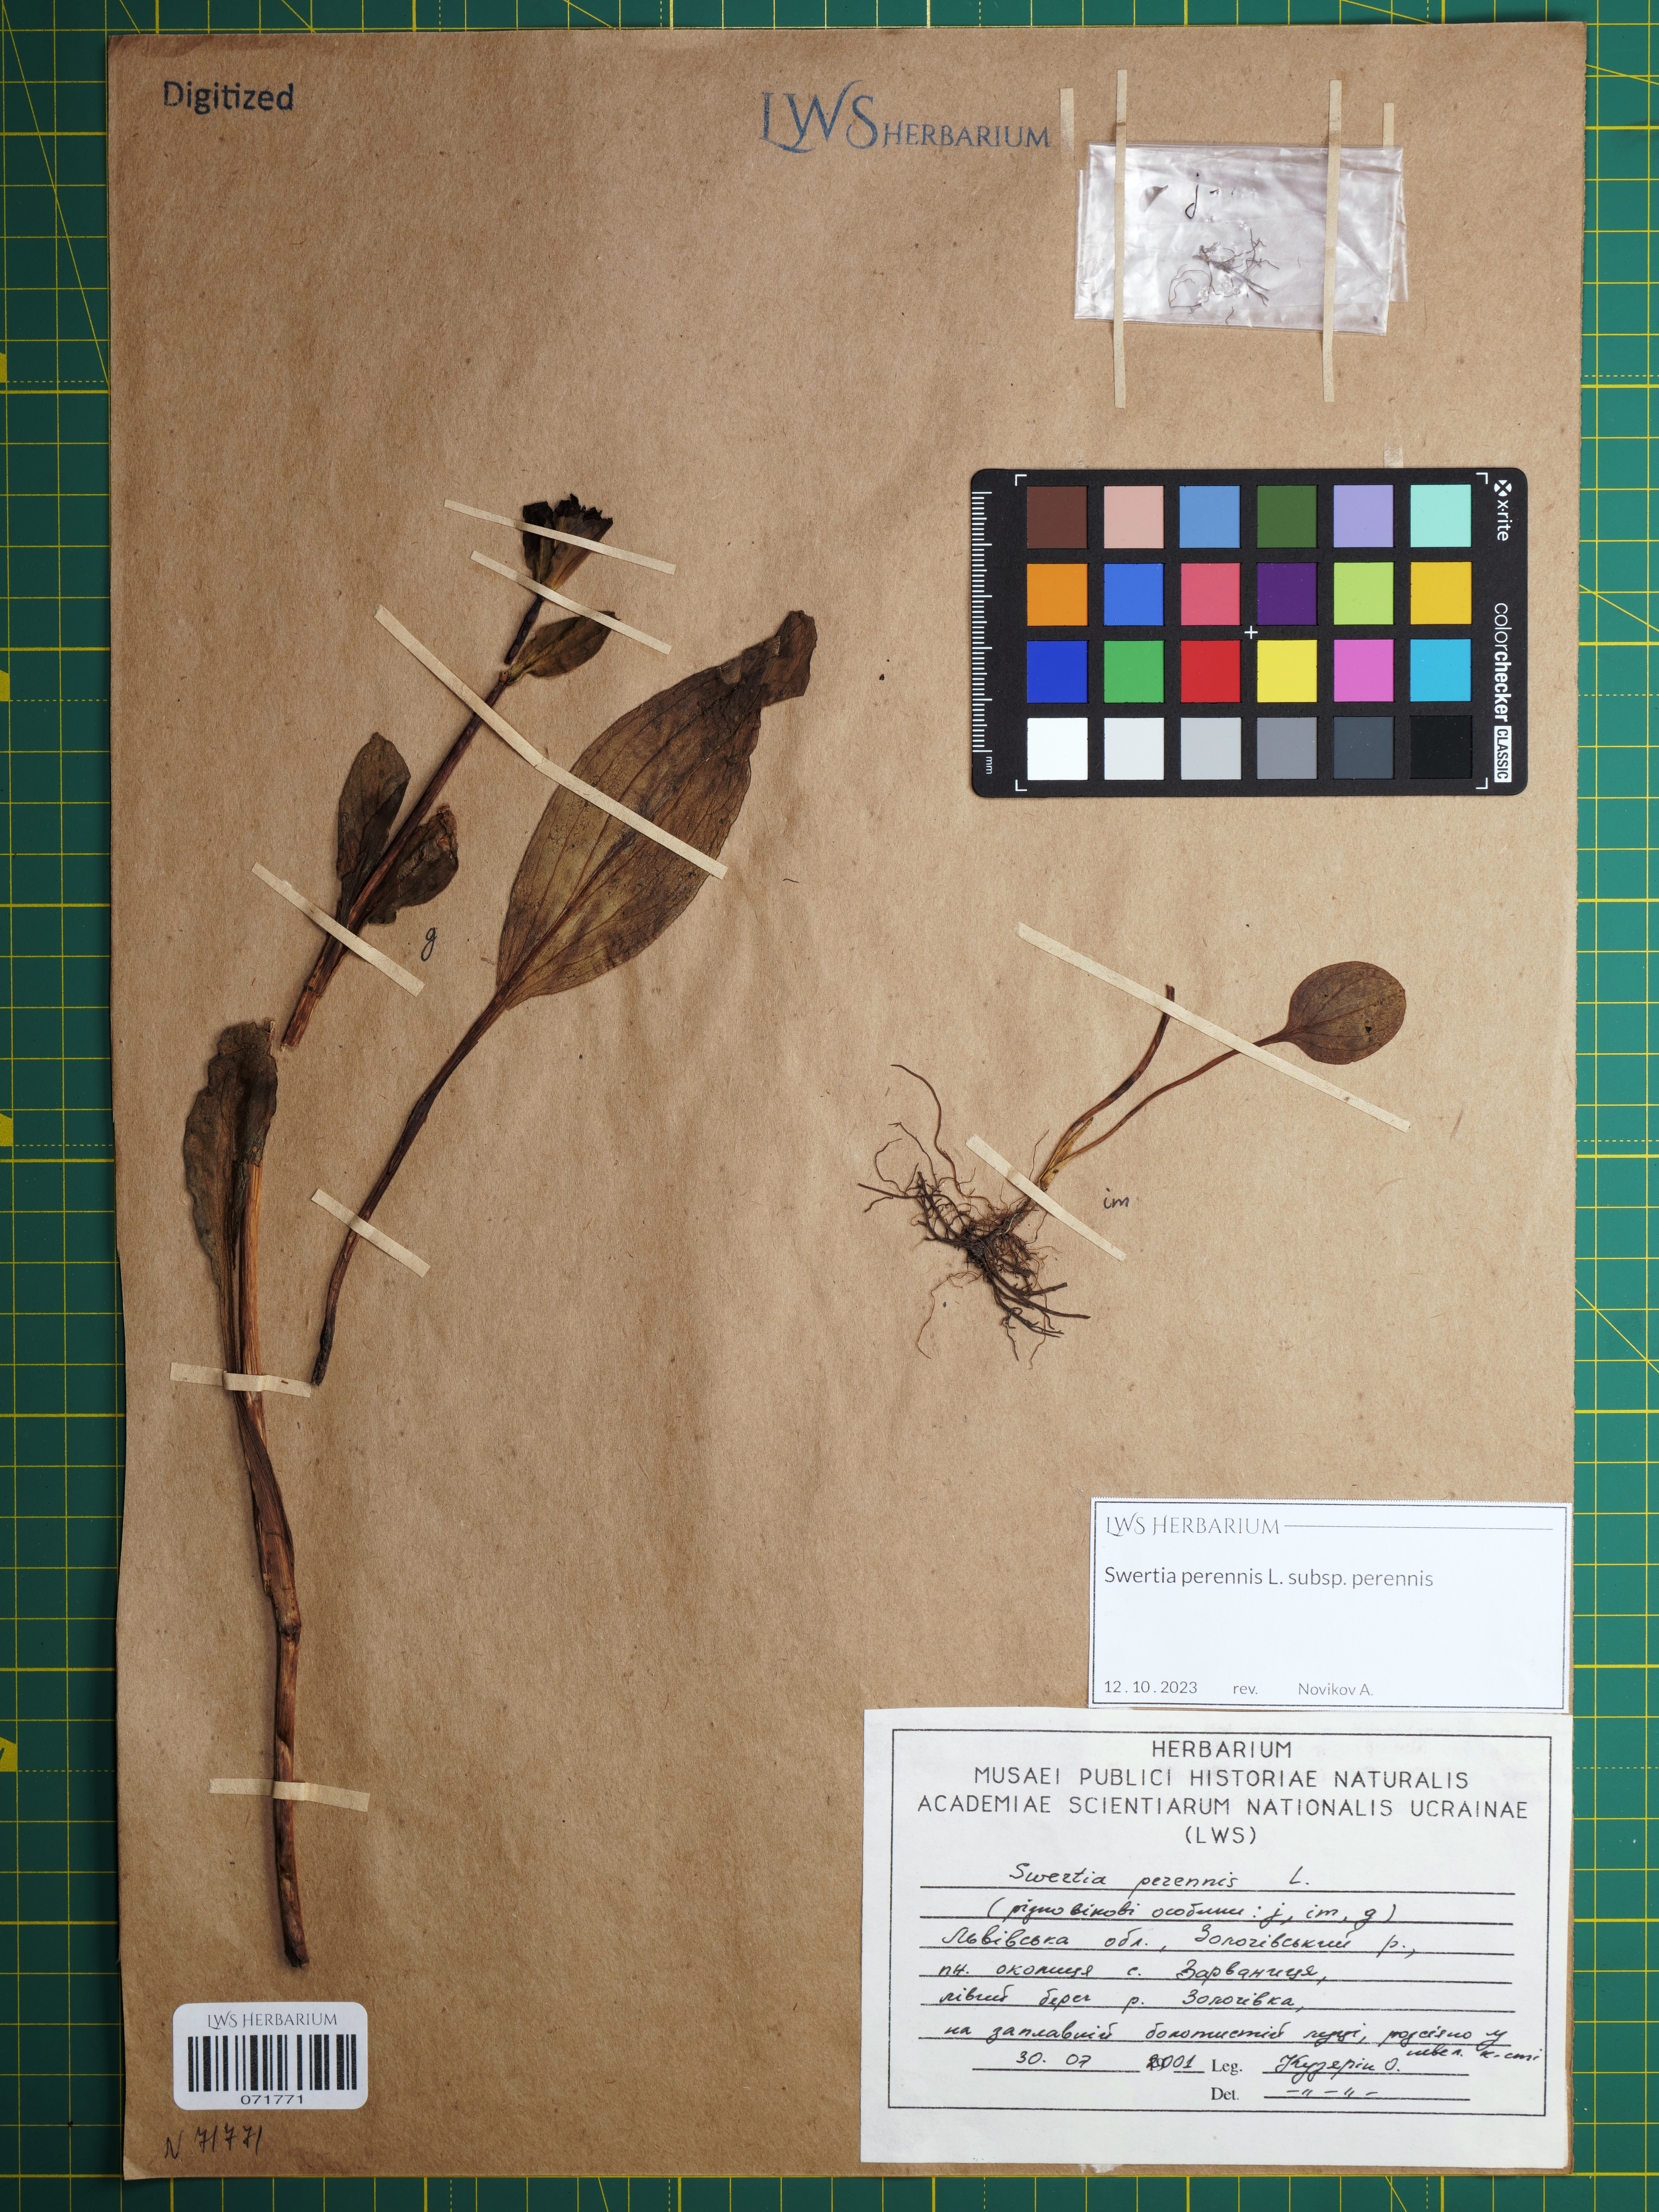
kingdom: Plantae
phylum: Tracheophyta
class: Magnoliopsida
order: Gentianales
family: Gentianaceae
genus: Swertia
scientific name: Swertia perennis
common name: Alpine bog swertia
